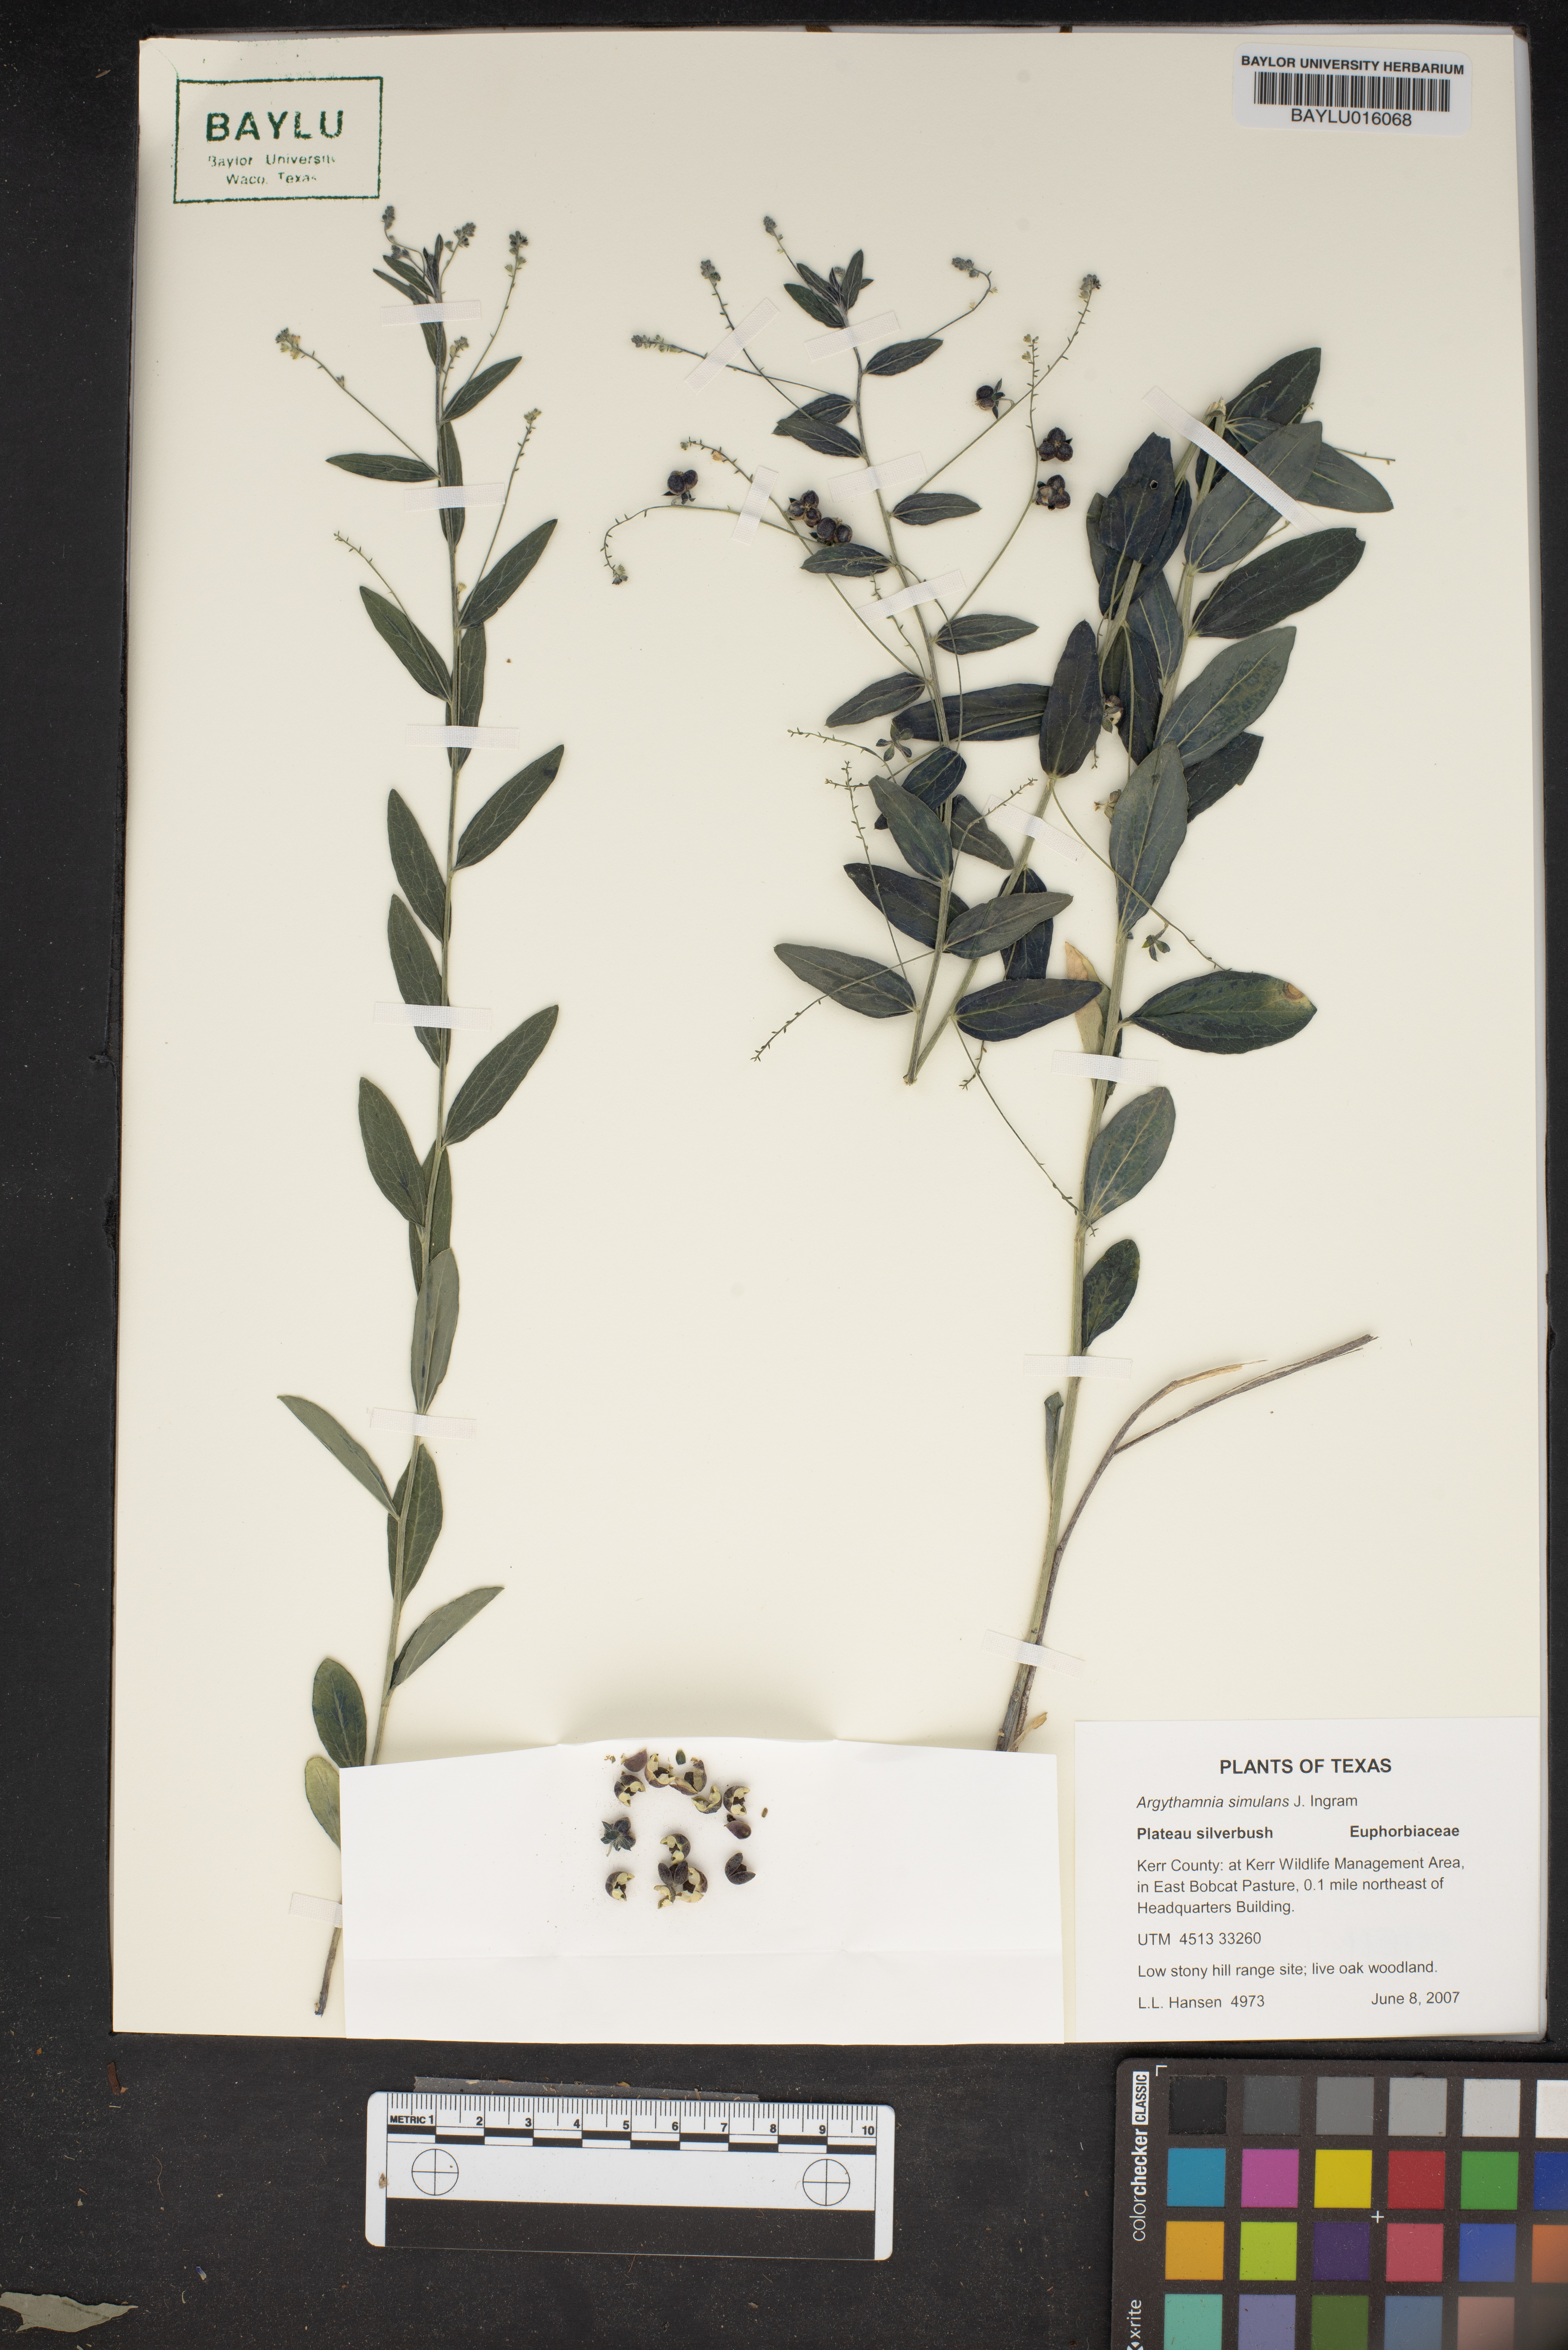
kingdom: Plantae
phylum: Tracheophyta
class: Magnoliopsida
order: Malpighiales
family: Euphorbiaceae
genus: Ditaxis
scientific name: Ditaxis simulans
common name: Plateau silverbush
